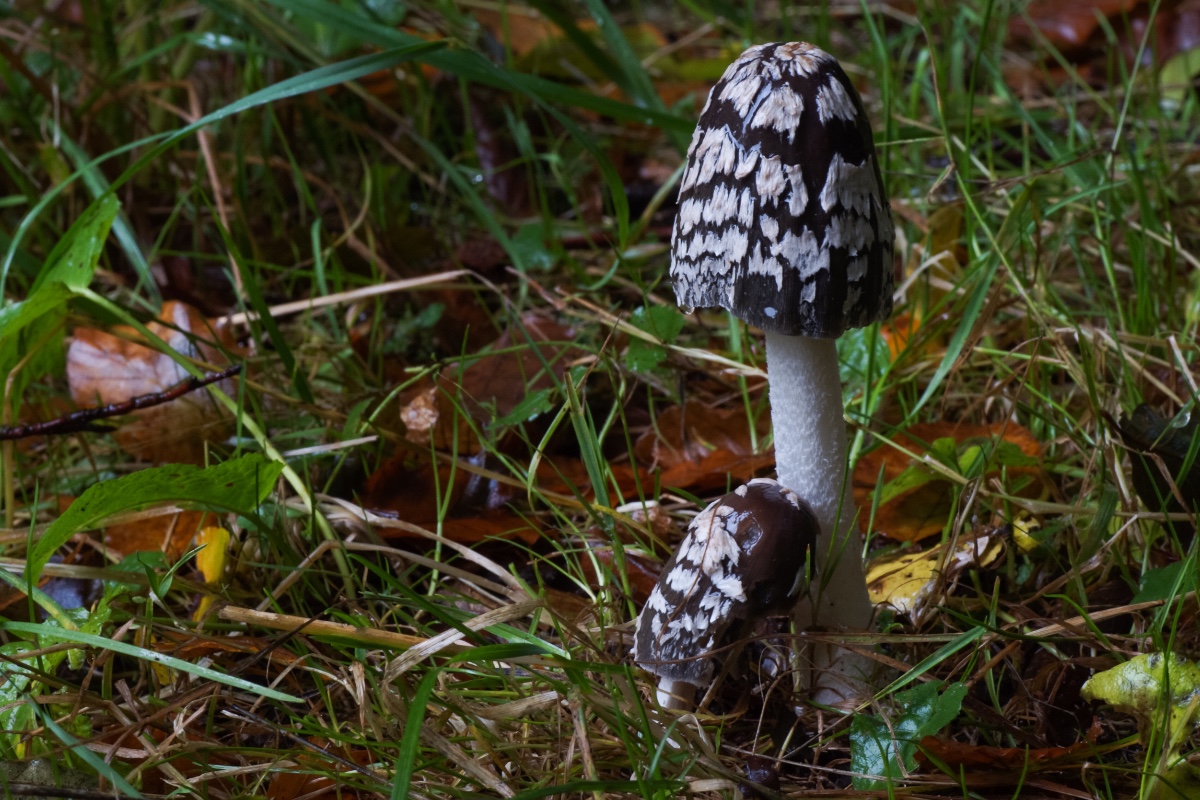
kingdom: Fungi
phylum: Basidiomycota
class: Agaricomycetes
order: Agaricales
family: Psathyrellaceae
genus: Coprinopsis
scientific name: Coprinopsis picacea
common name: skade-blækhat
